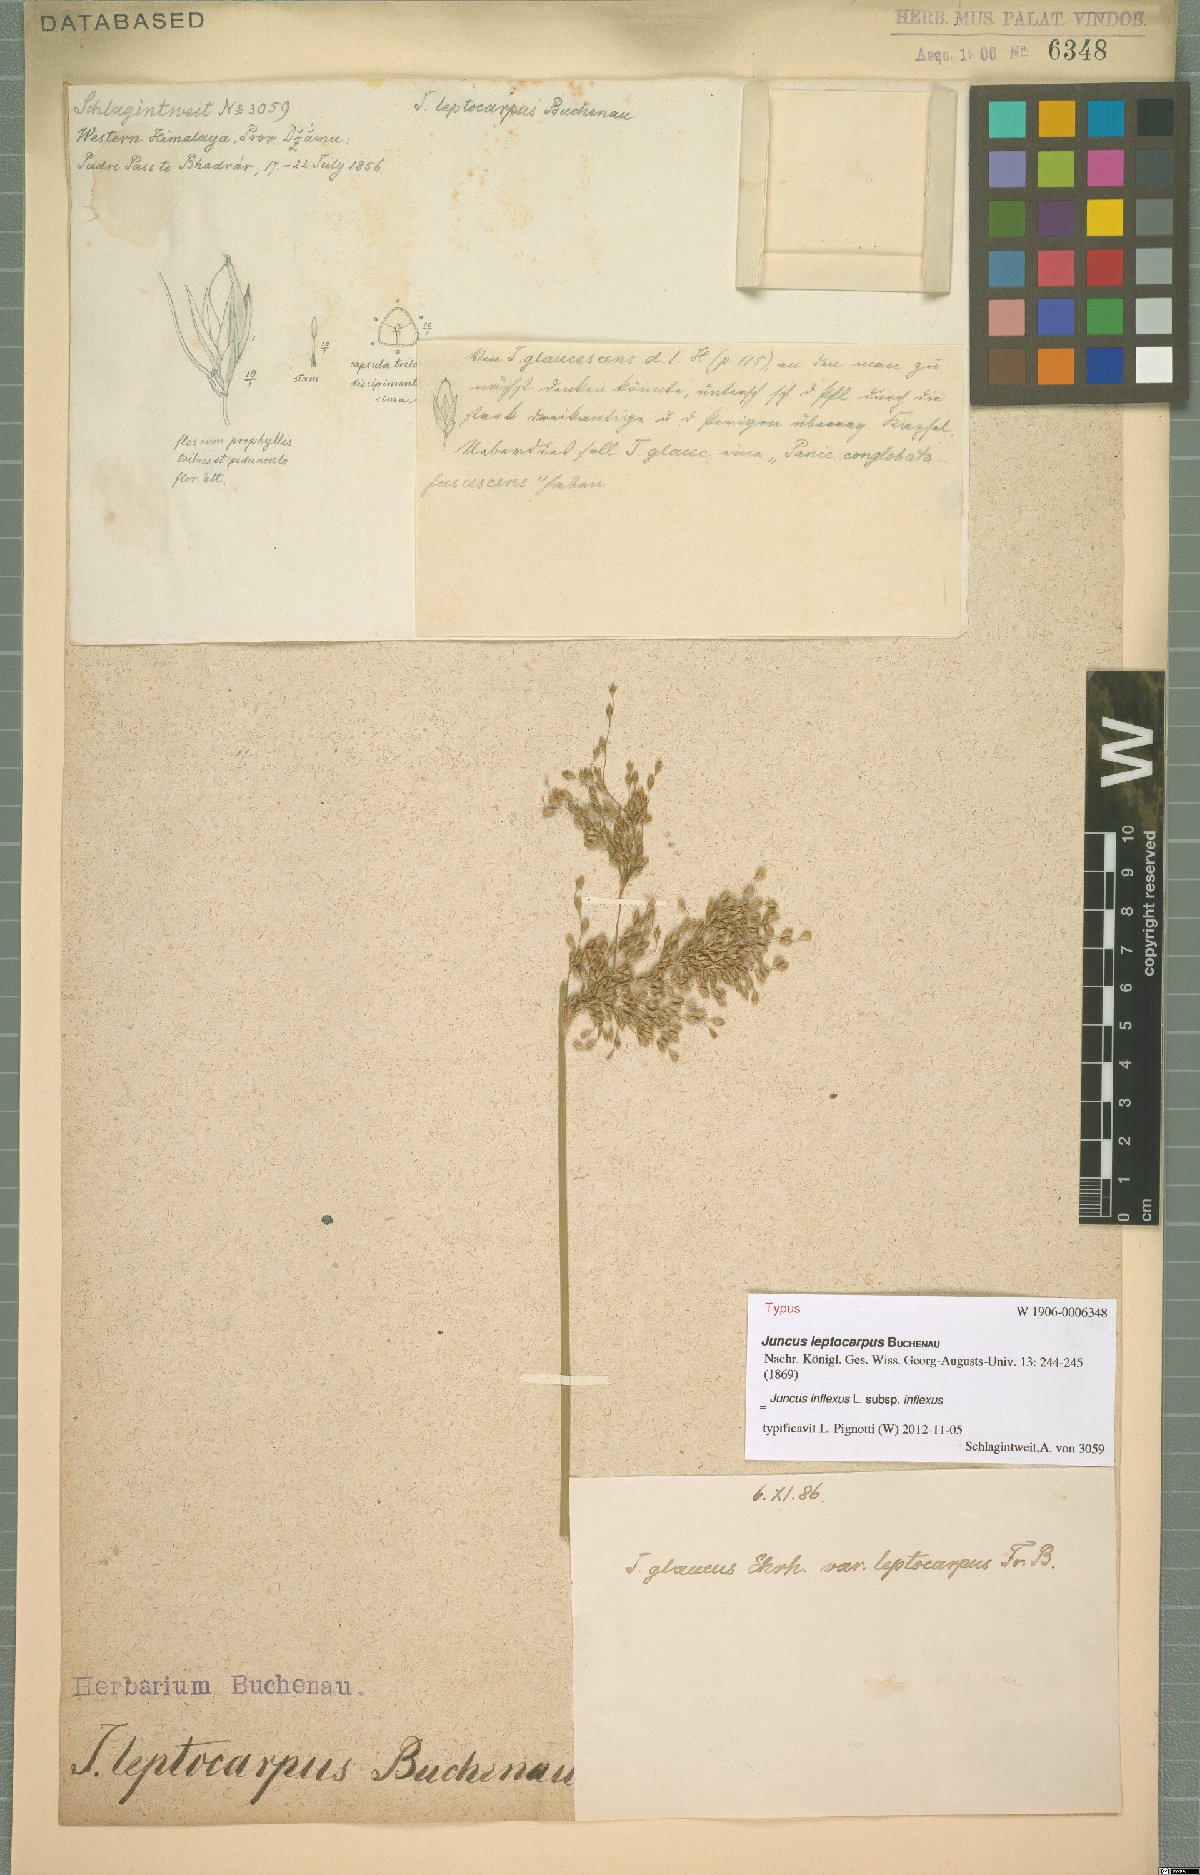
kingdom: Plantae
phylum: Tracheophyta
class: Liliopsida
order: Poales
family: Juncaceae
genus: Juncus
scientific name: Juncus inflexus
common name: Hard rush
